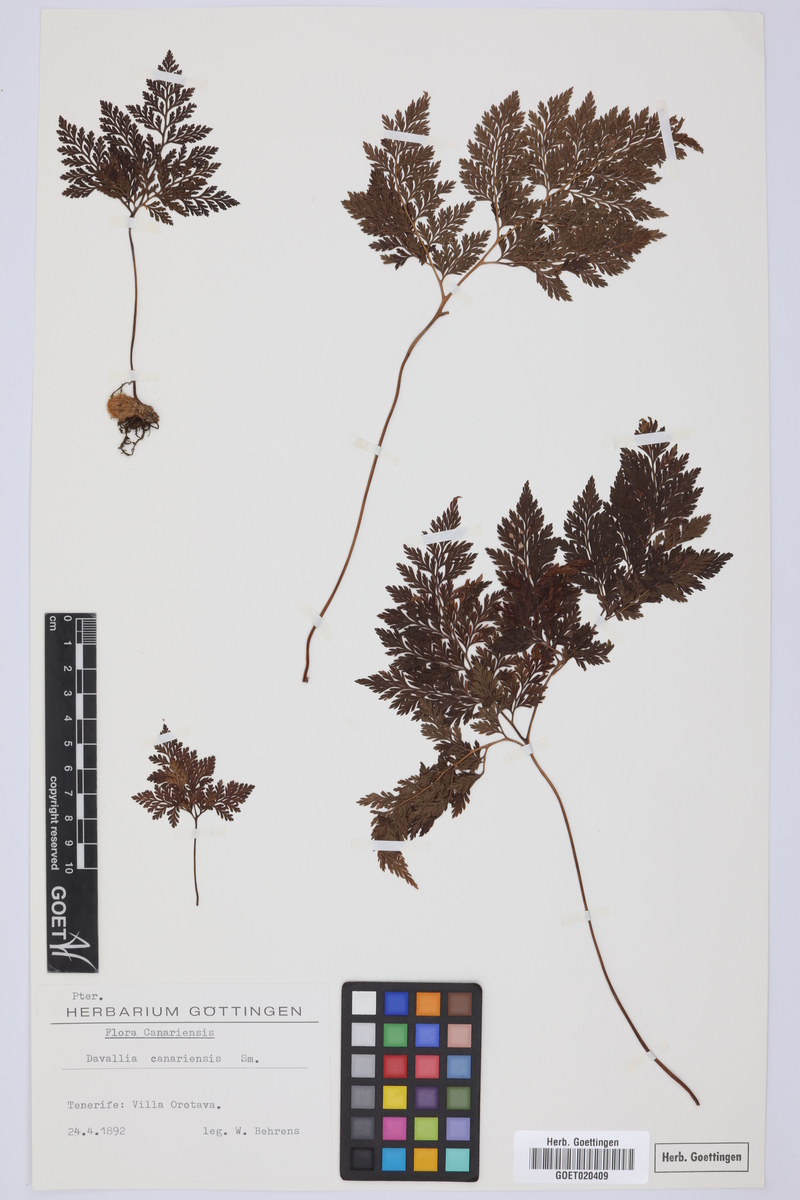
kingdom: Plantae
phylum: Tracheophyta
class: Polypodiopsida
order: Polypodiales
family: Davalliaceae
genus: Davallia
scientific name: Davallia canariensis
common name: Hare's-foot fern
